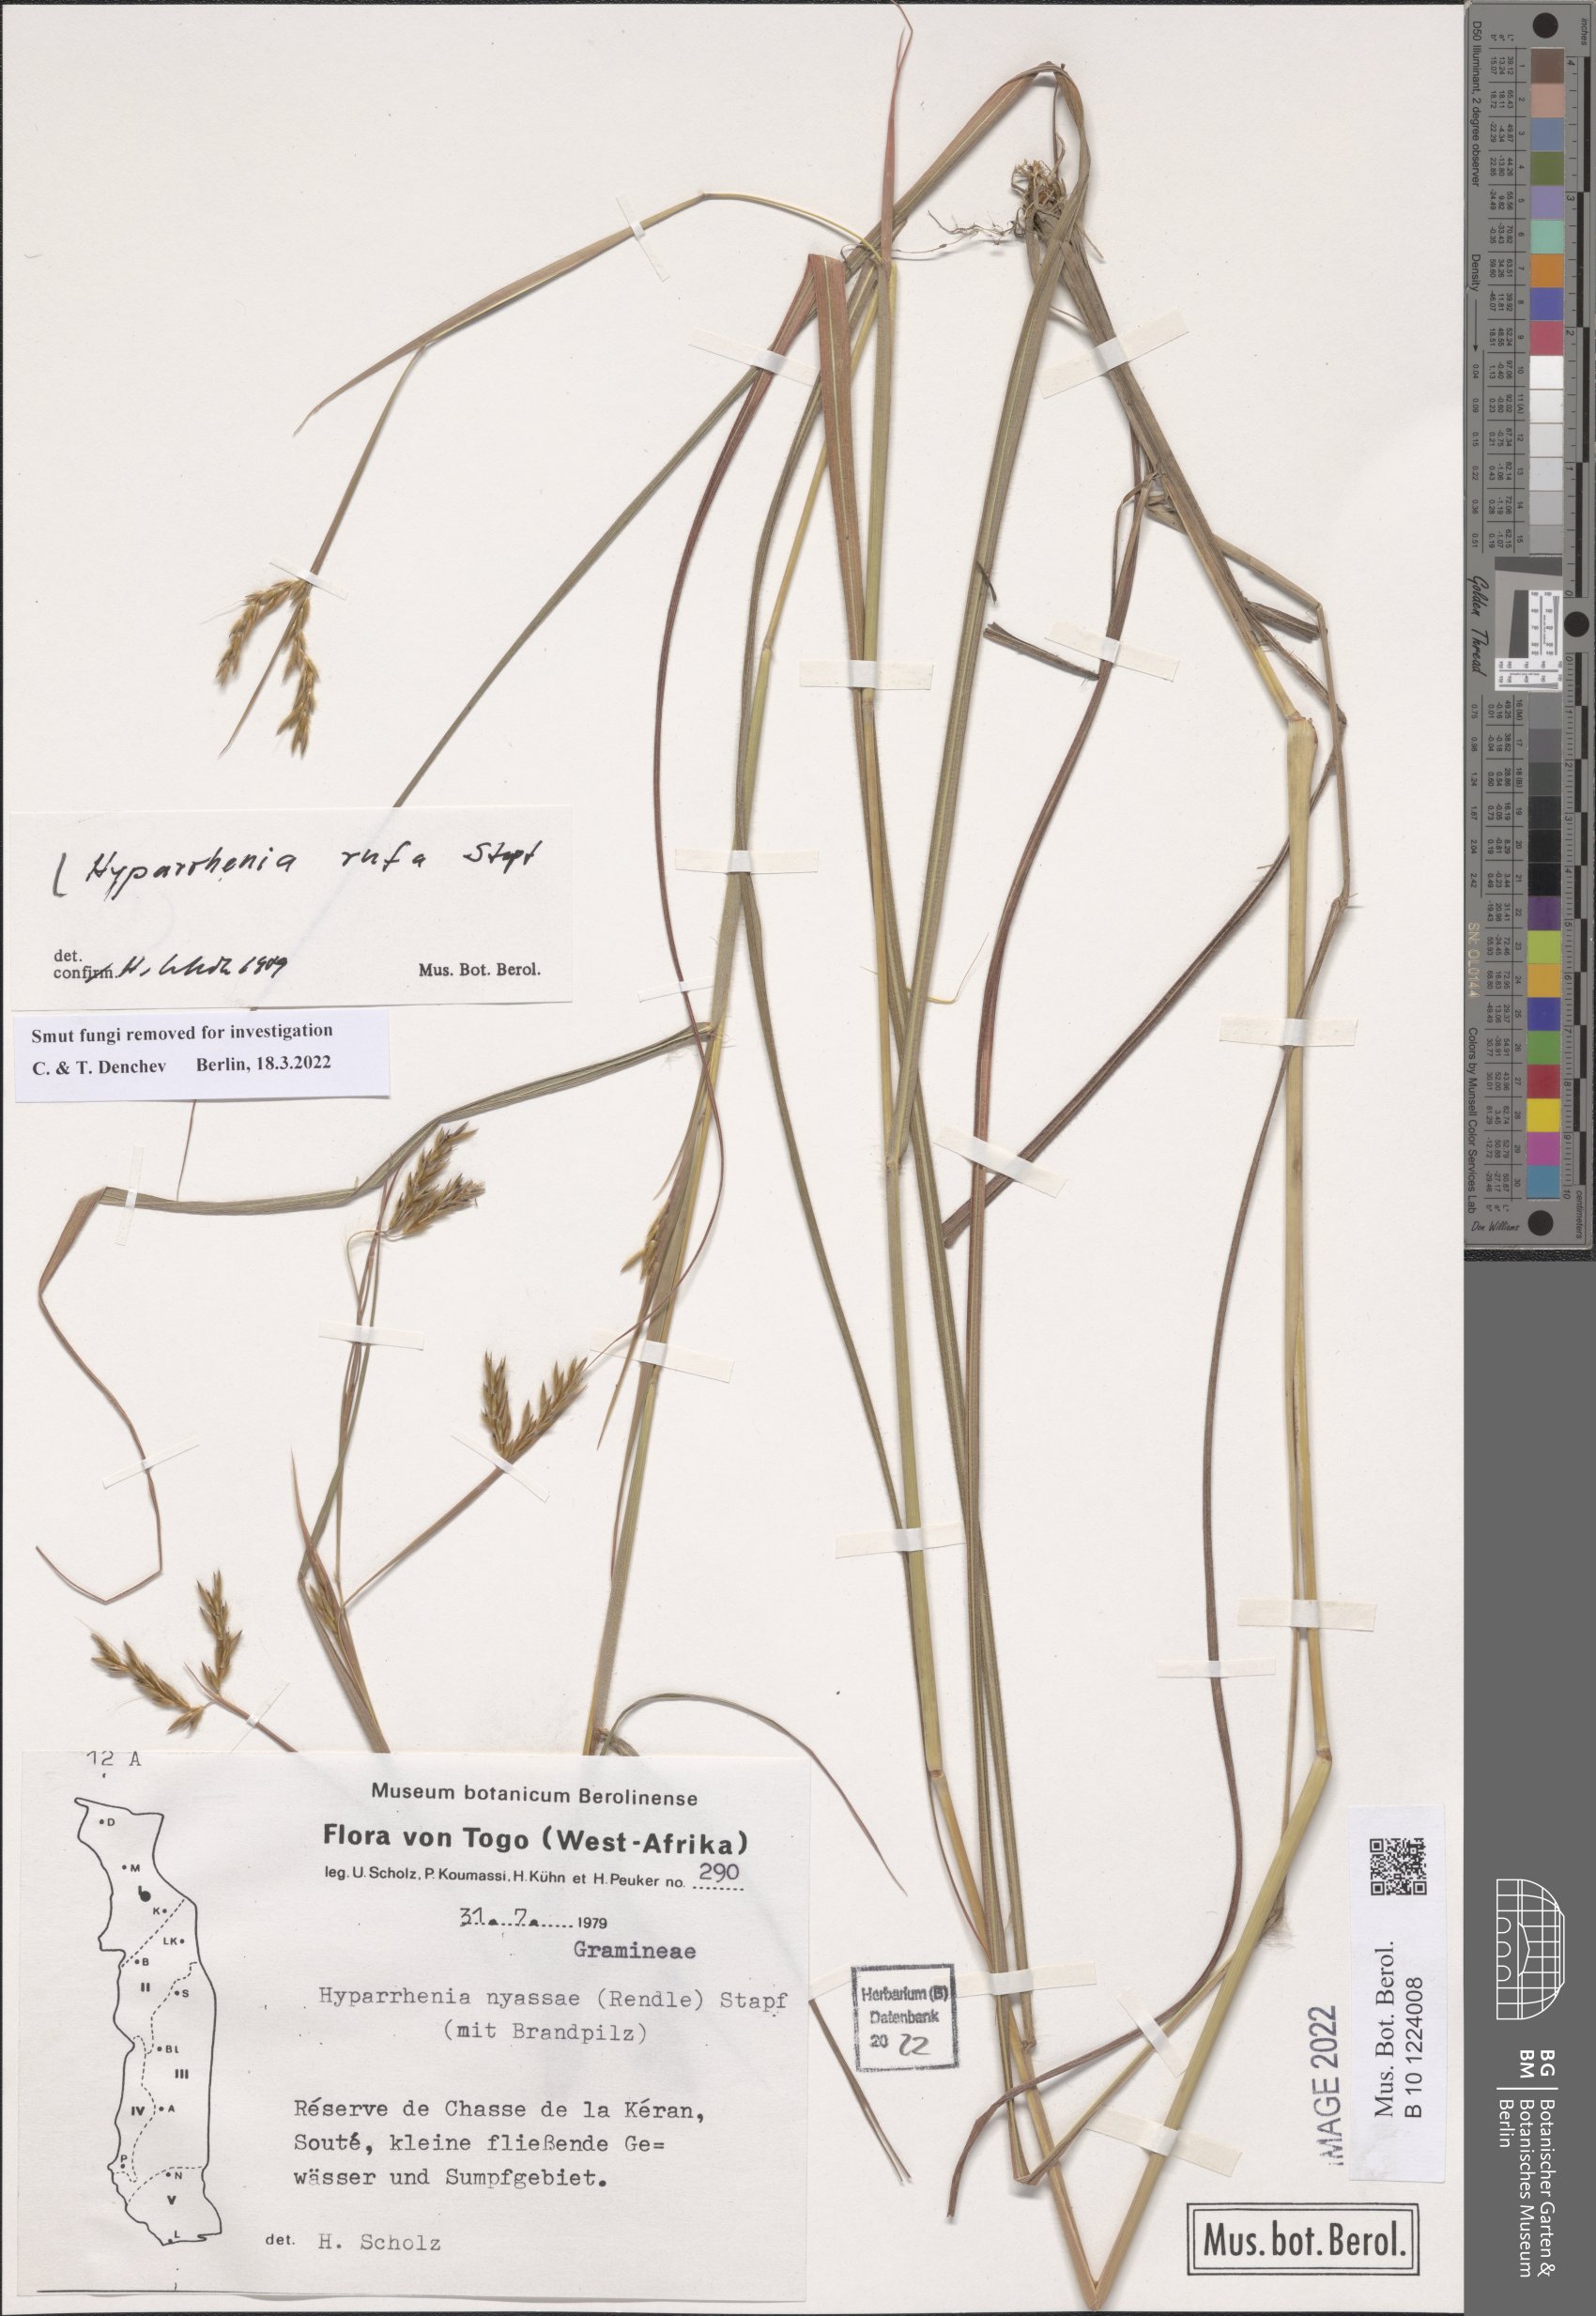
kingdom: Plantae
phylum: Tracheophyta
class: Liliopsida
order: Poales
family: Poaceae
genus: Hyparrhenia
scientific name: Hyparrhenia rufa
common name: Jaraguagrass
